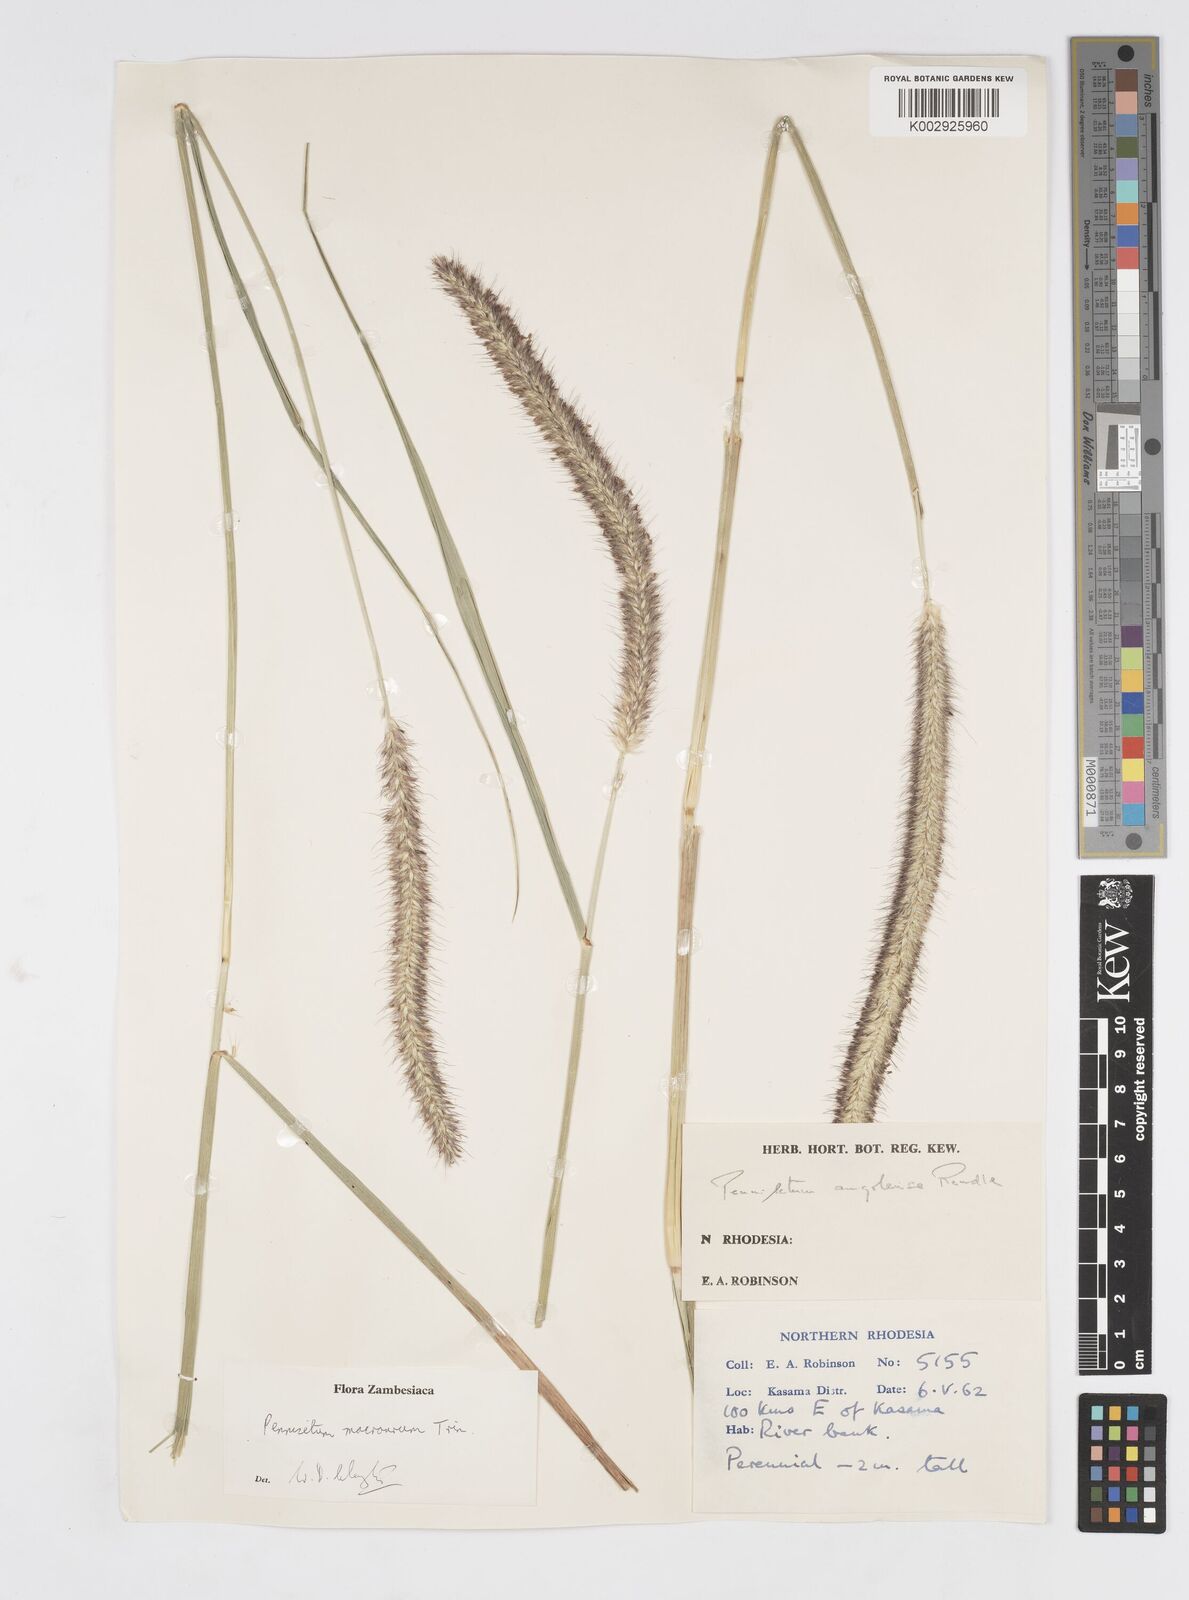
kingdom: Plantae
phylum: Tracheophyta
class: Liliopsida
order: Poales
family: Poaceae
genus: Cenchrus
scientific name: Cenchrus caudatus
